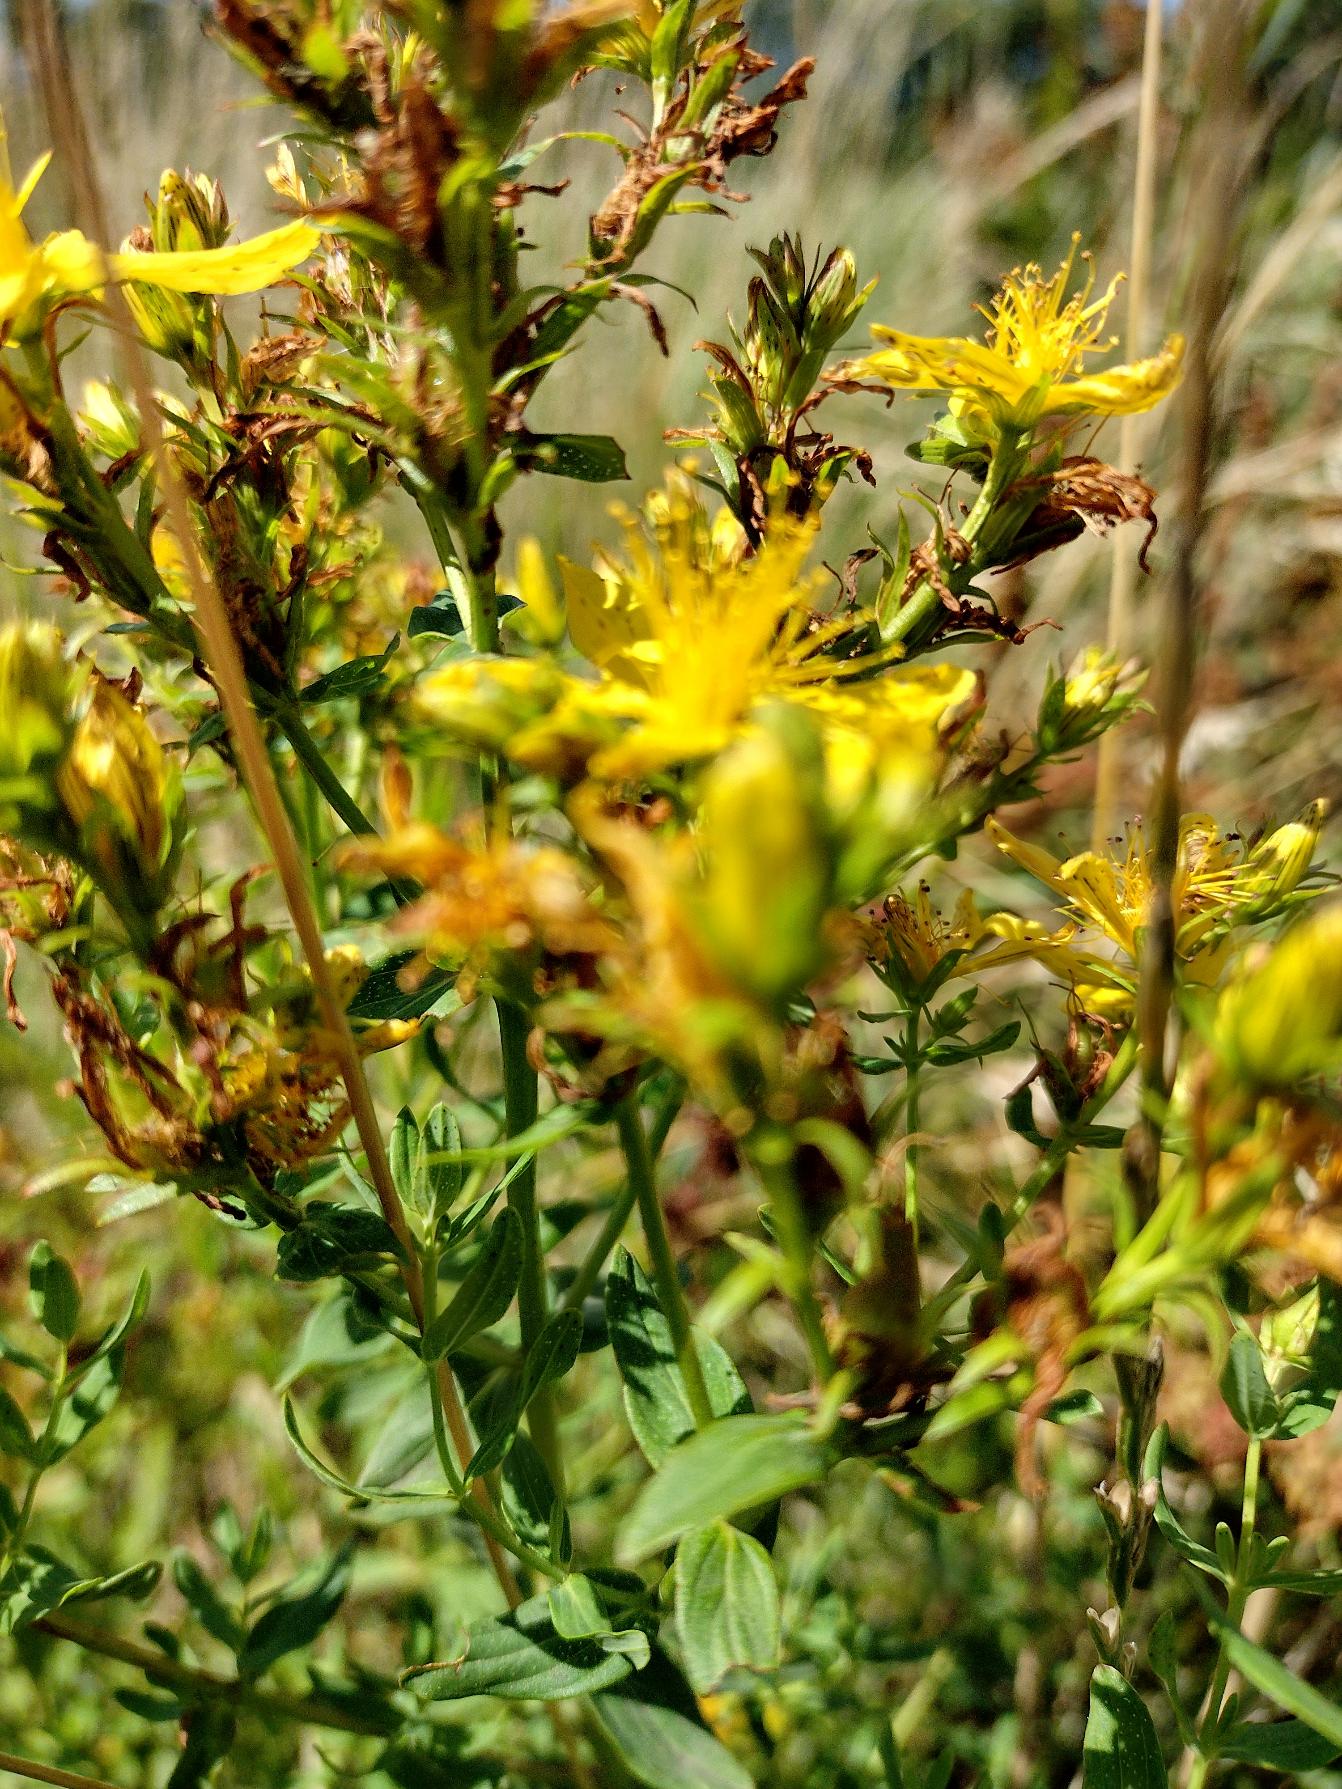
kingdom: Plantae
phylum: Tracheophyta
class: Magnoliopsida
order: Malpighiales
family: Hypericaceae
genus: Hypericum
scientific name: Hypericum perforatum
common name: Prikbladet perikon
